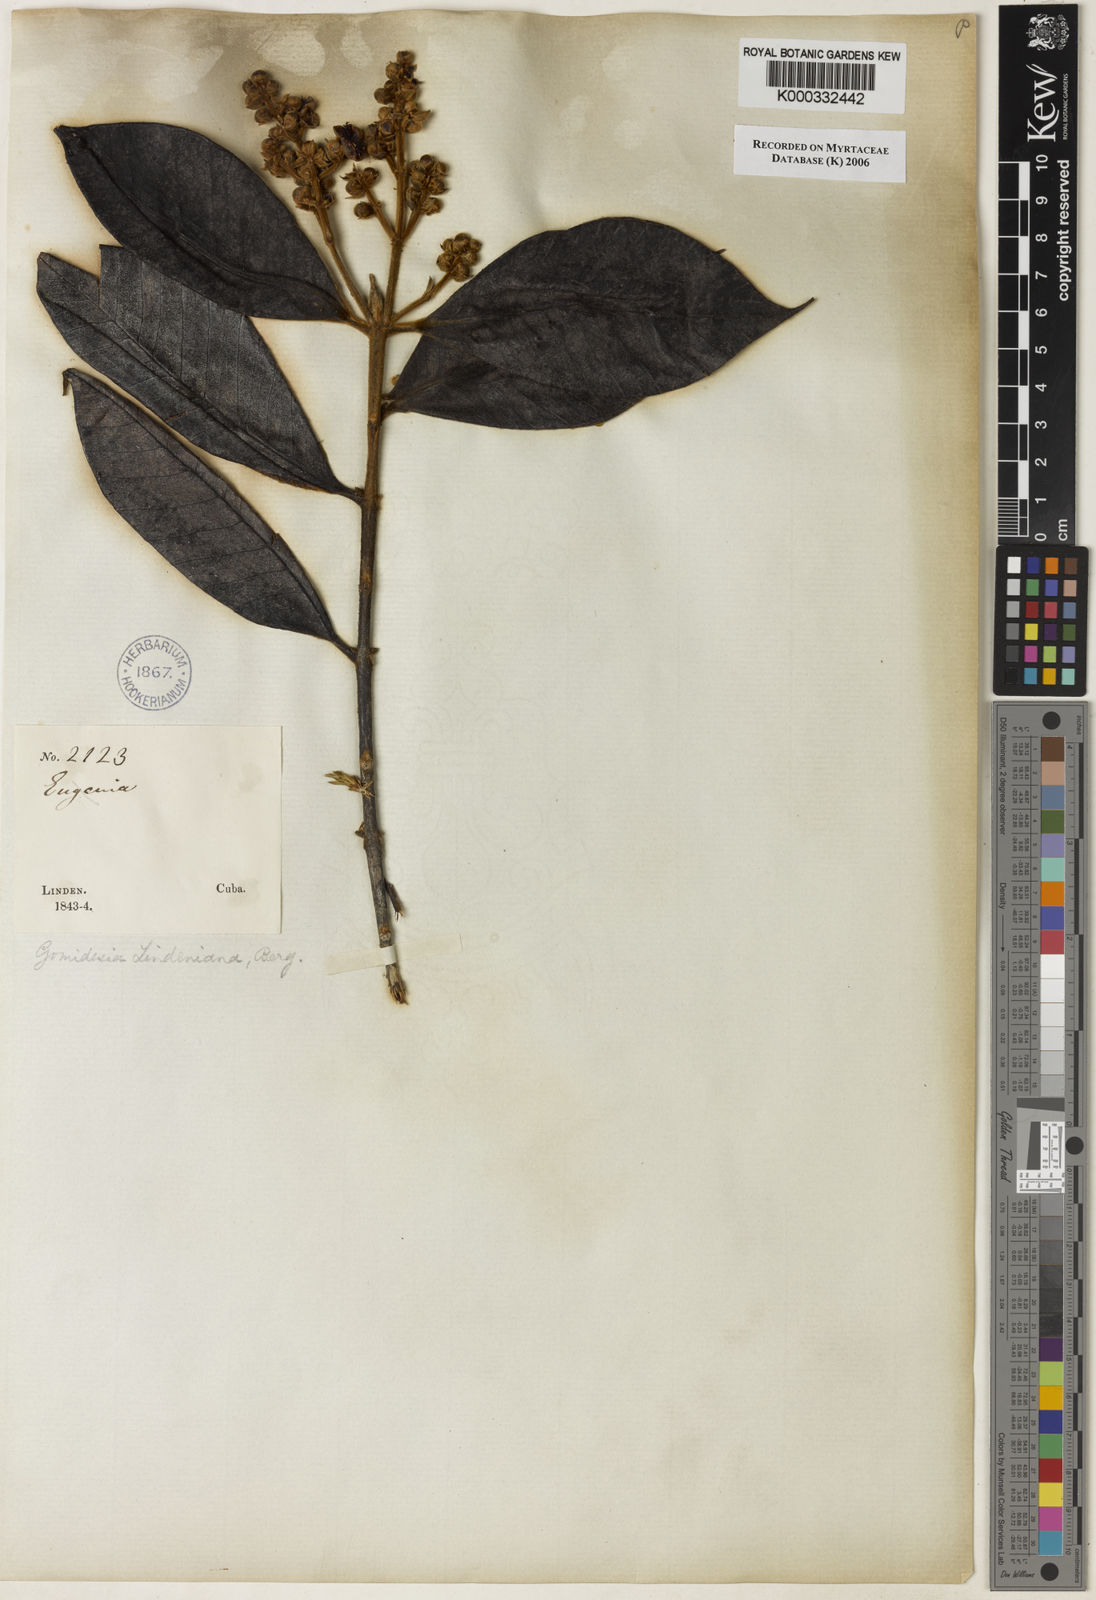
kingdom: Plantae
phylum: Tracheophyta
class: Magnoliopsida
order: Myrtales
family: Myrtaceae
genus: Myrcia
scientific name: Myrcia fenzliana
